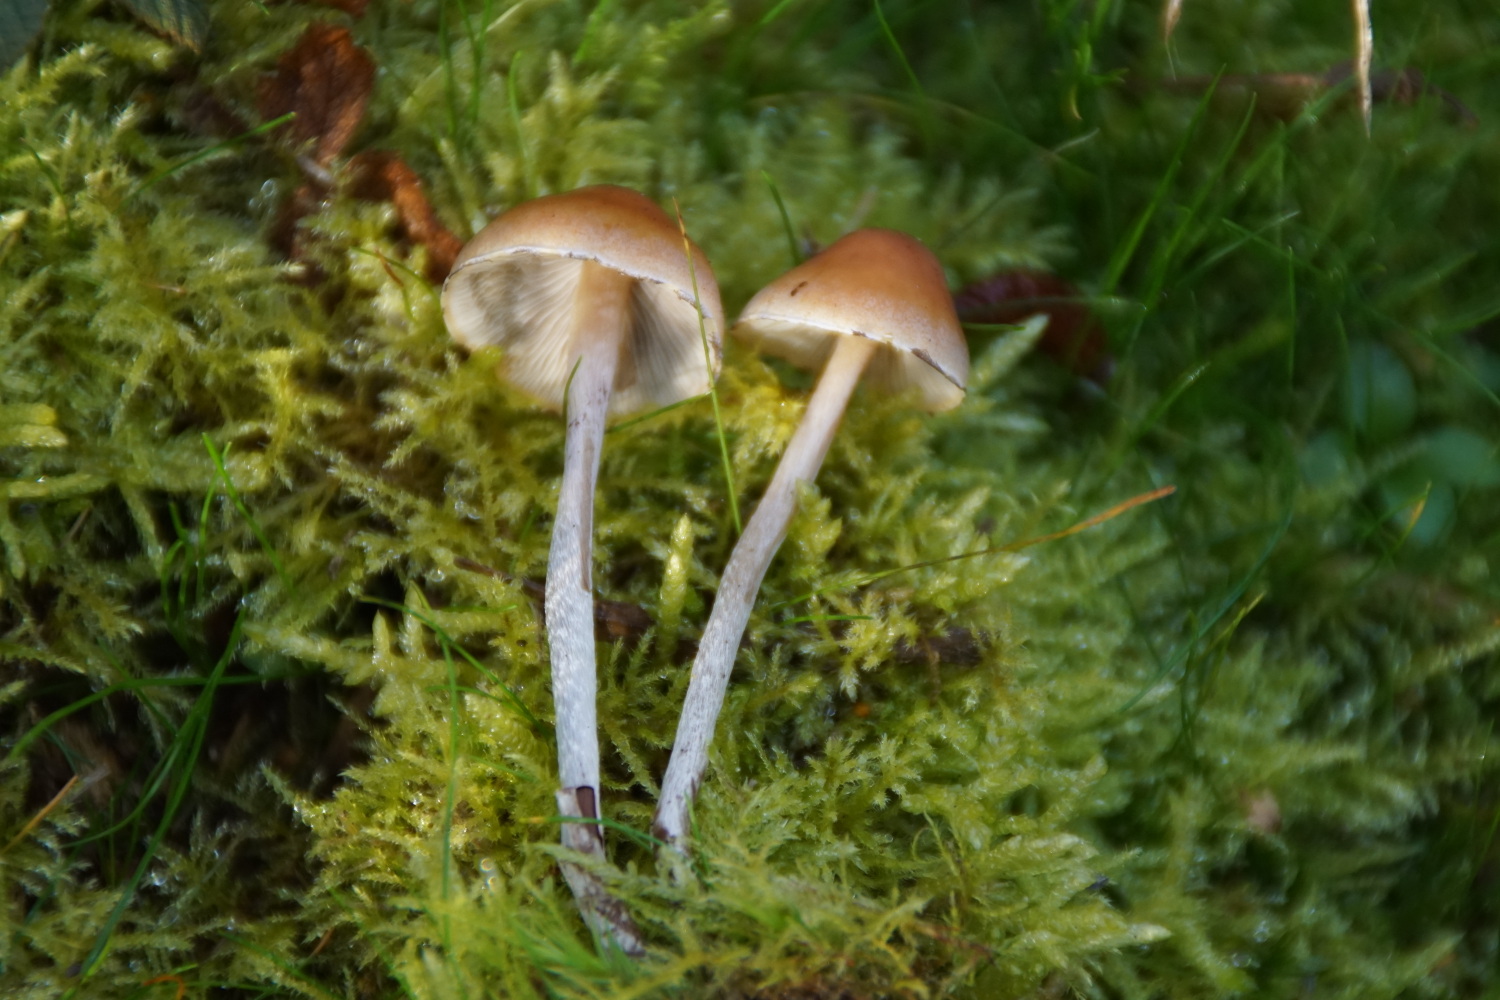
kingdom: Fungi
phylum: Basidiomycota
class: Agaricomycetes
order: Agaricales
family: Strophariaceae
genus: Hypholoma
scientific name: Hypholoma marginatum
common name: enlig svovlhat
